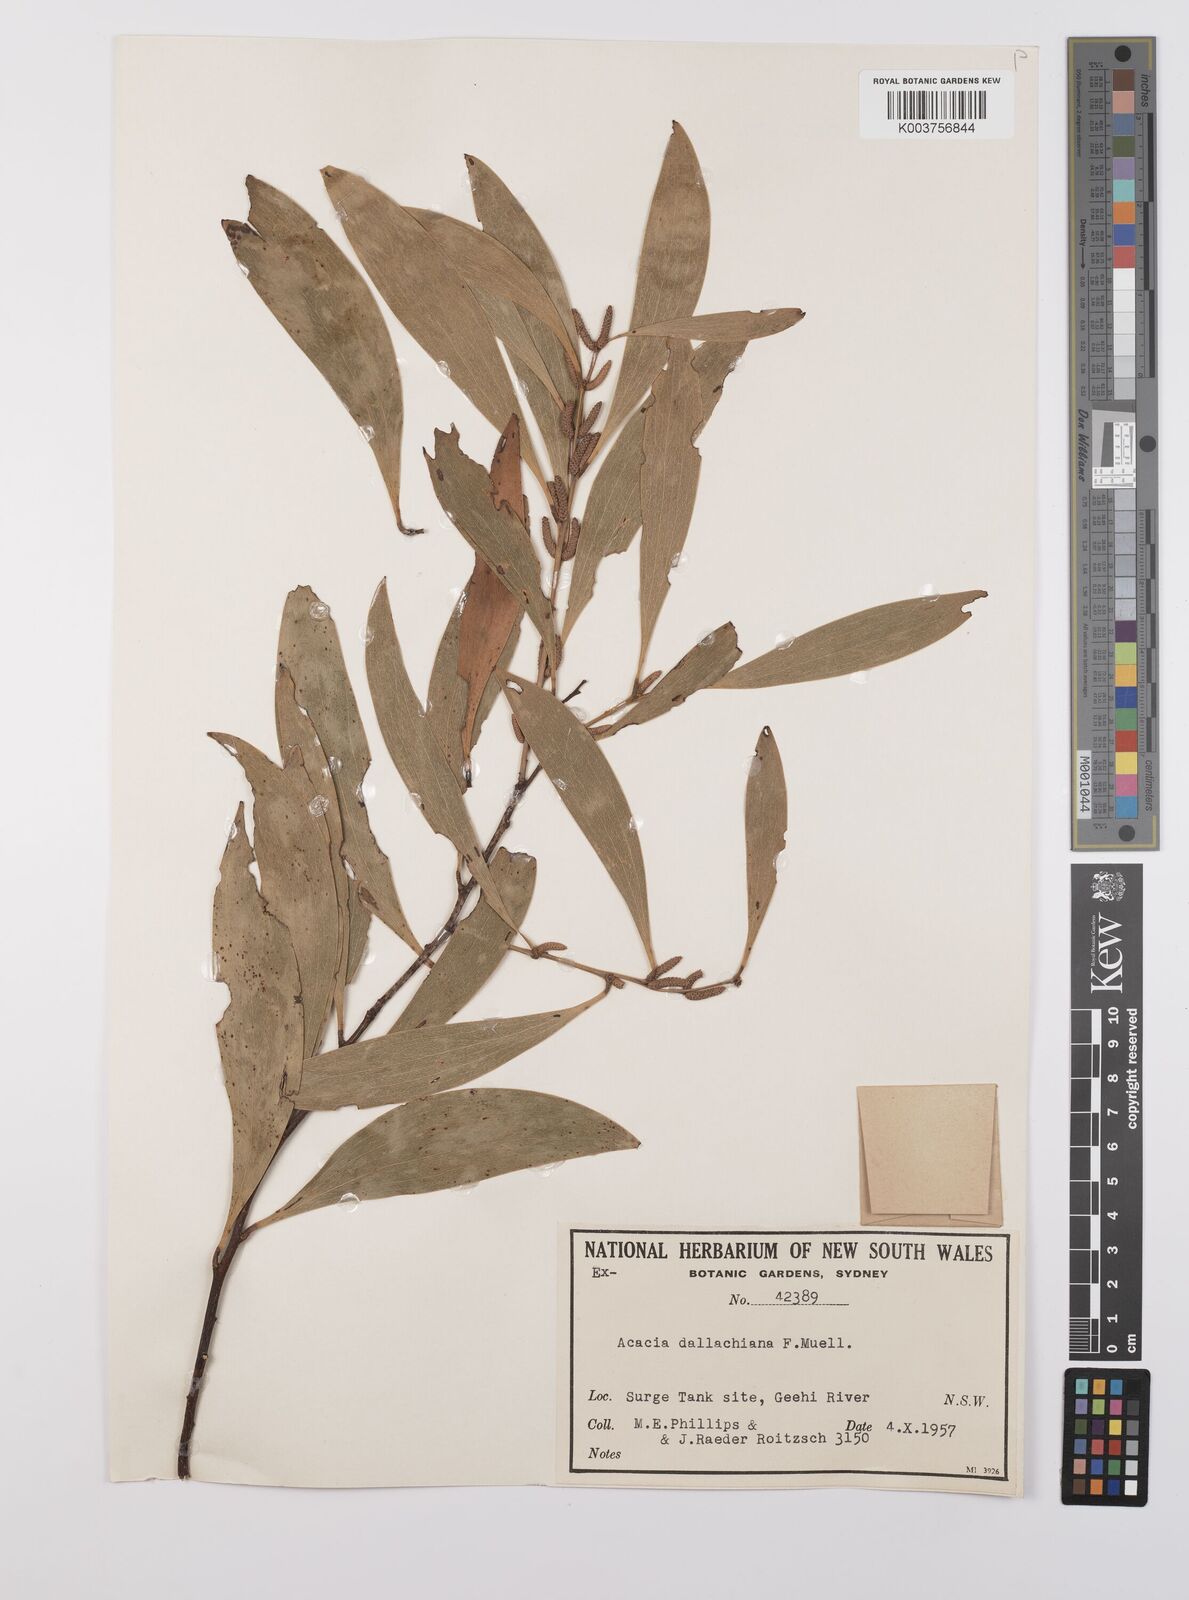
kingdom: Plantae
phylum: Tracheophyta
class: Magnoliopsida
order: Fabales
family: Fabaceae
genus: Acacia
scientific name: Acacia dallachiana
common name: Catkin wattle
